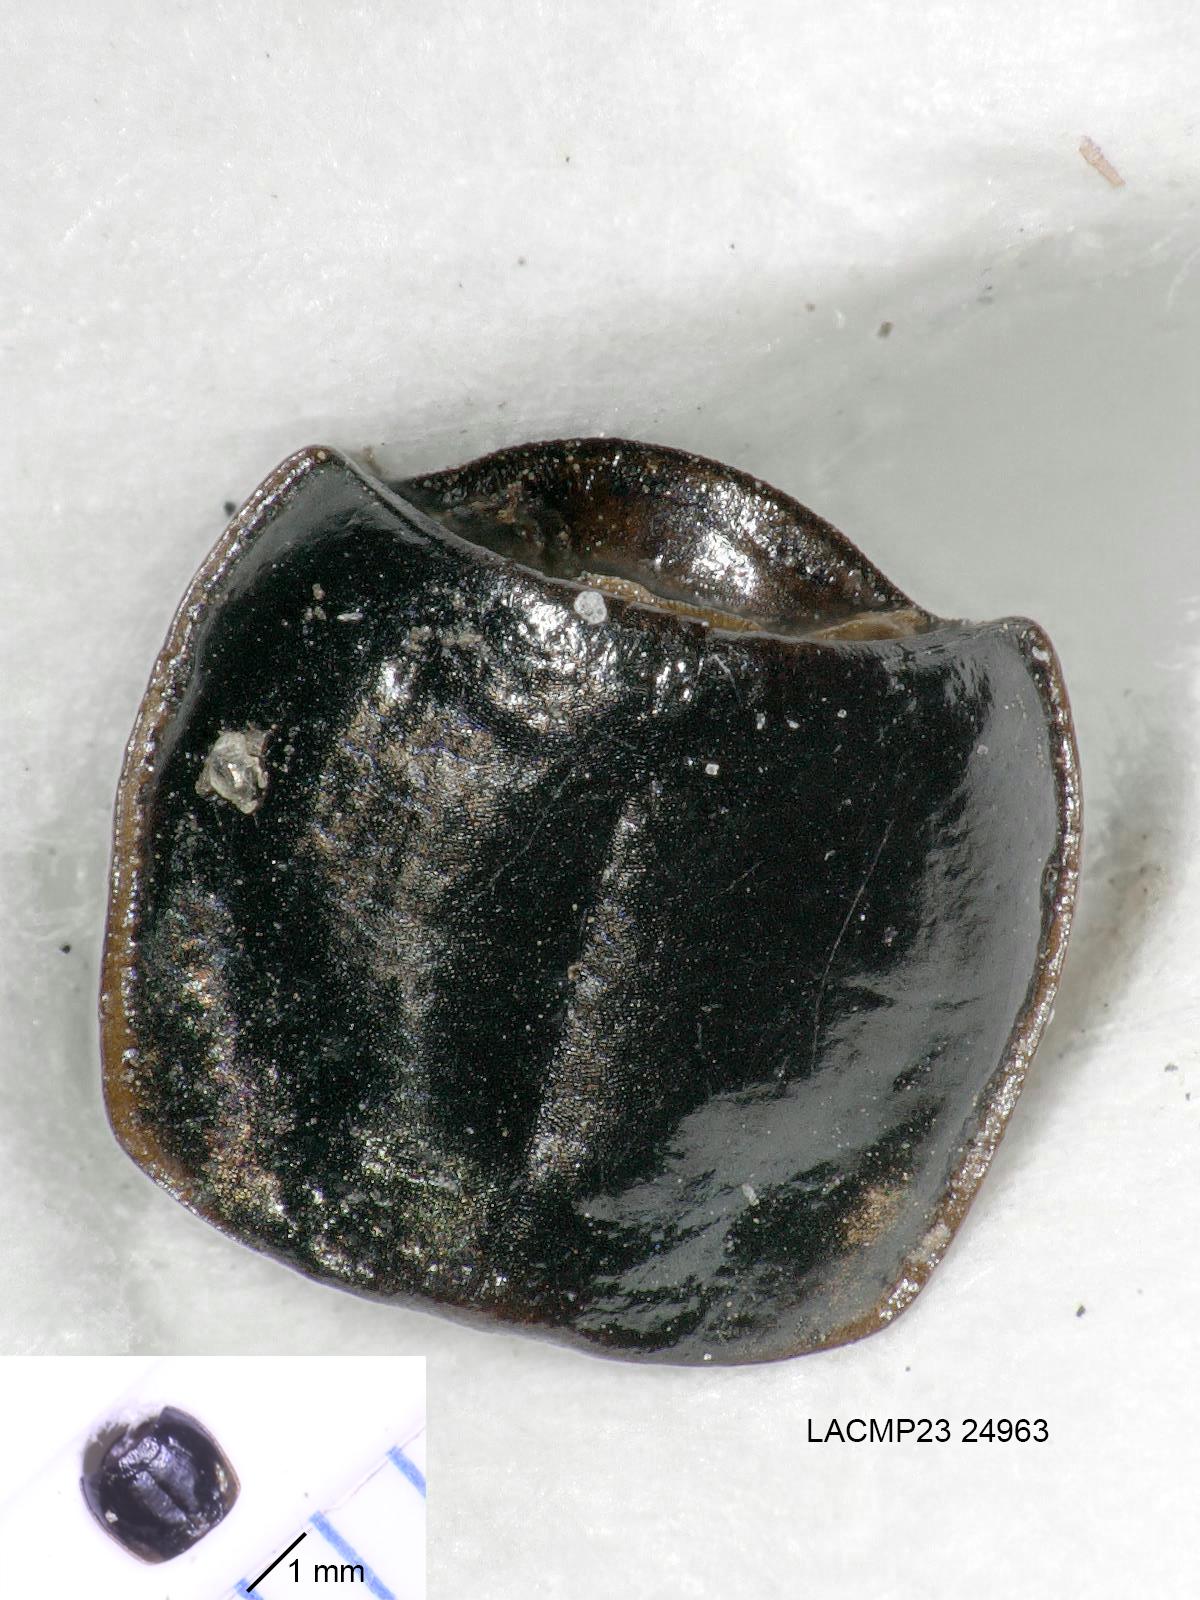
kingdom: Animalia
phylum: Arthropoda
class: Insecta
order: Coleoptera
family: Carabidae
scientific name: Carabidae
